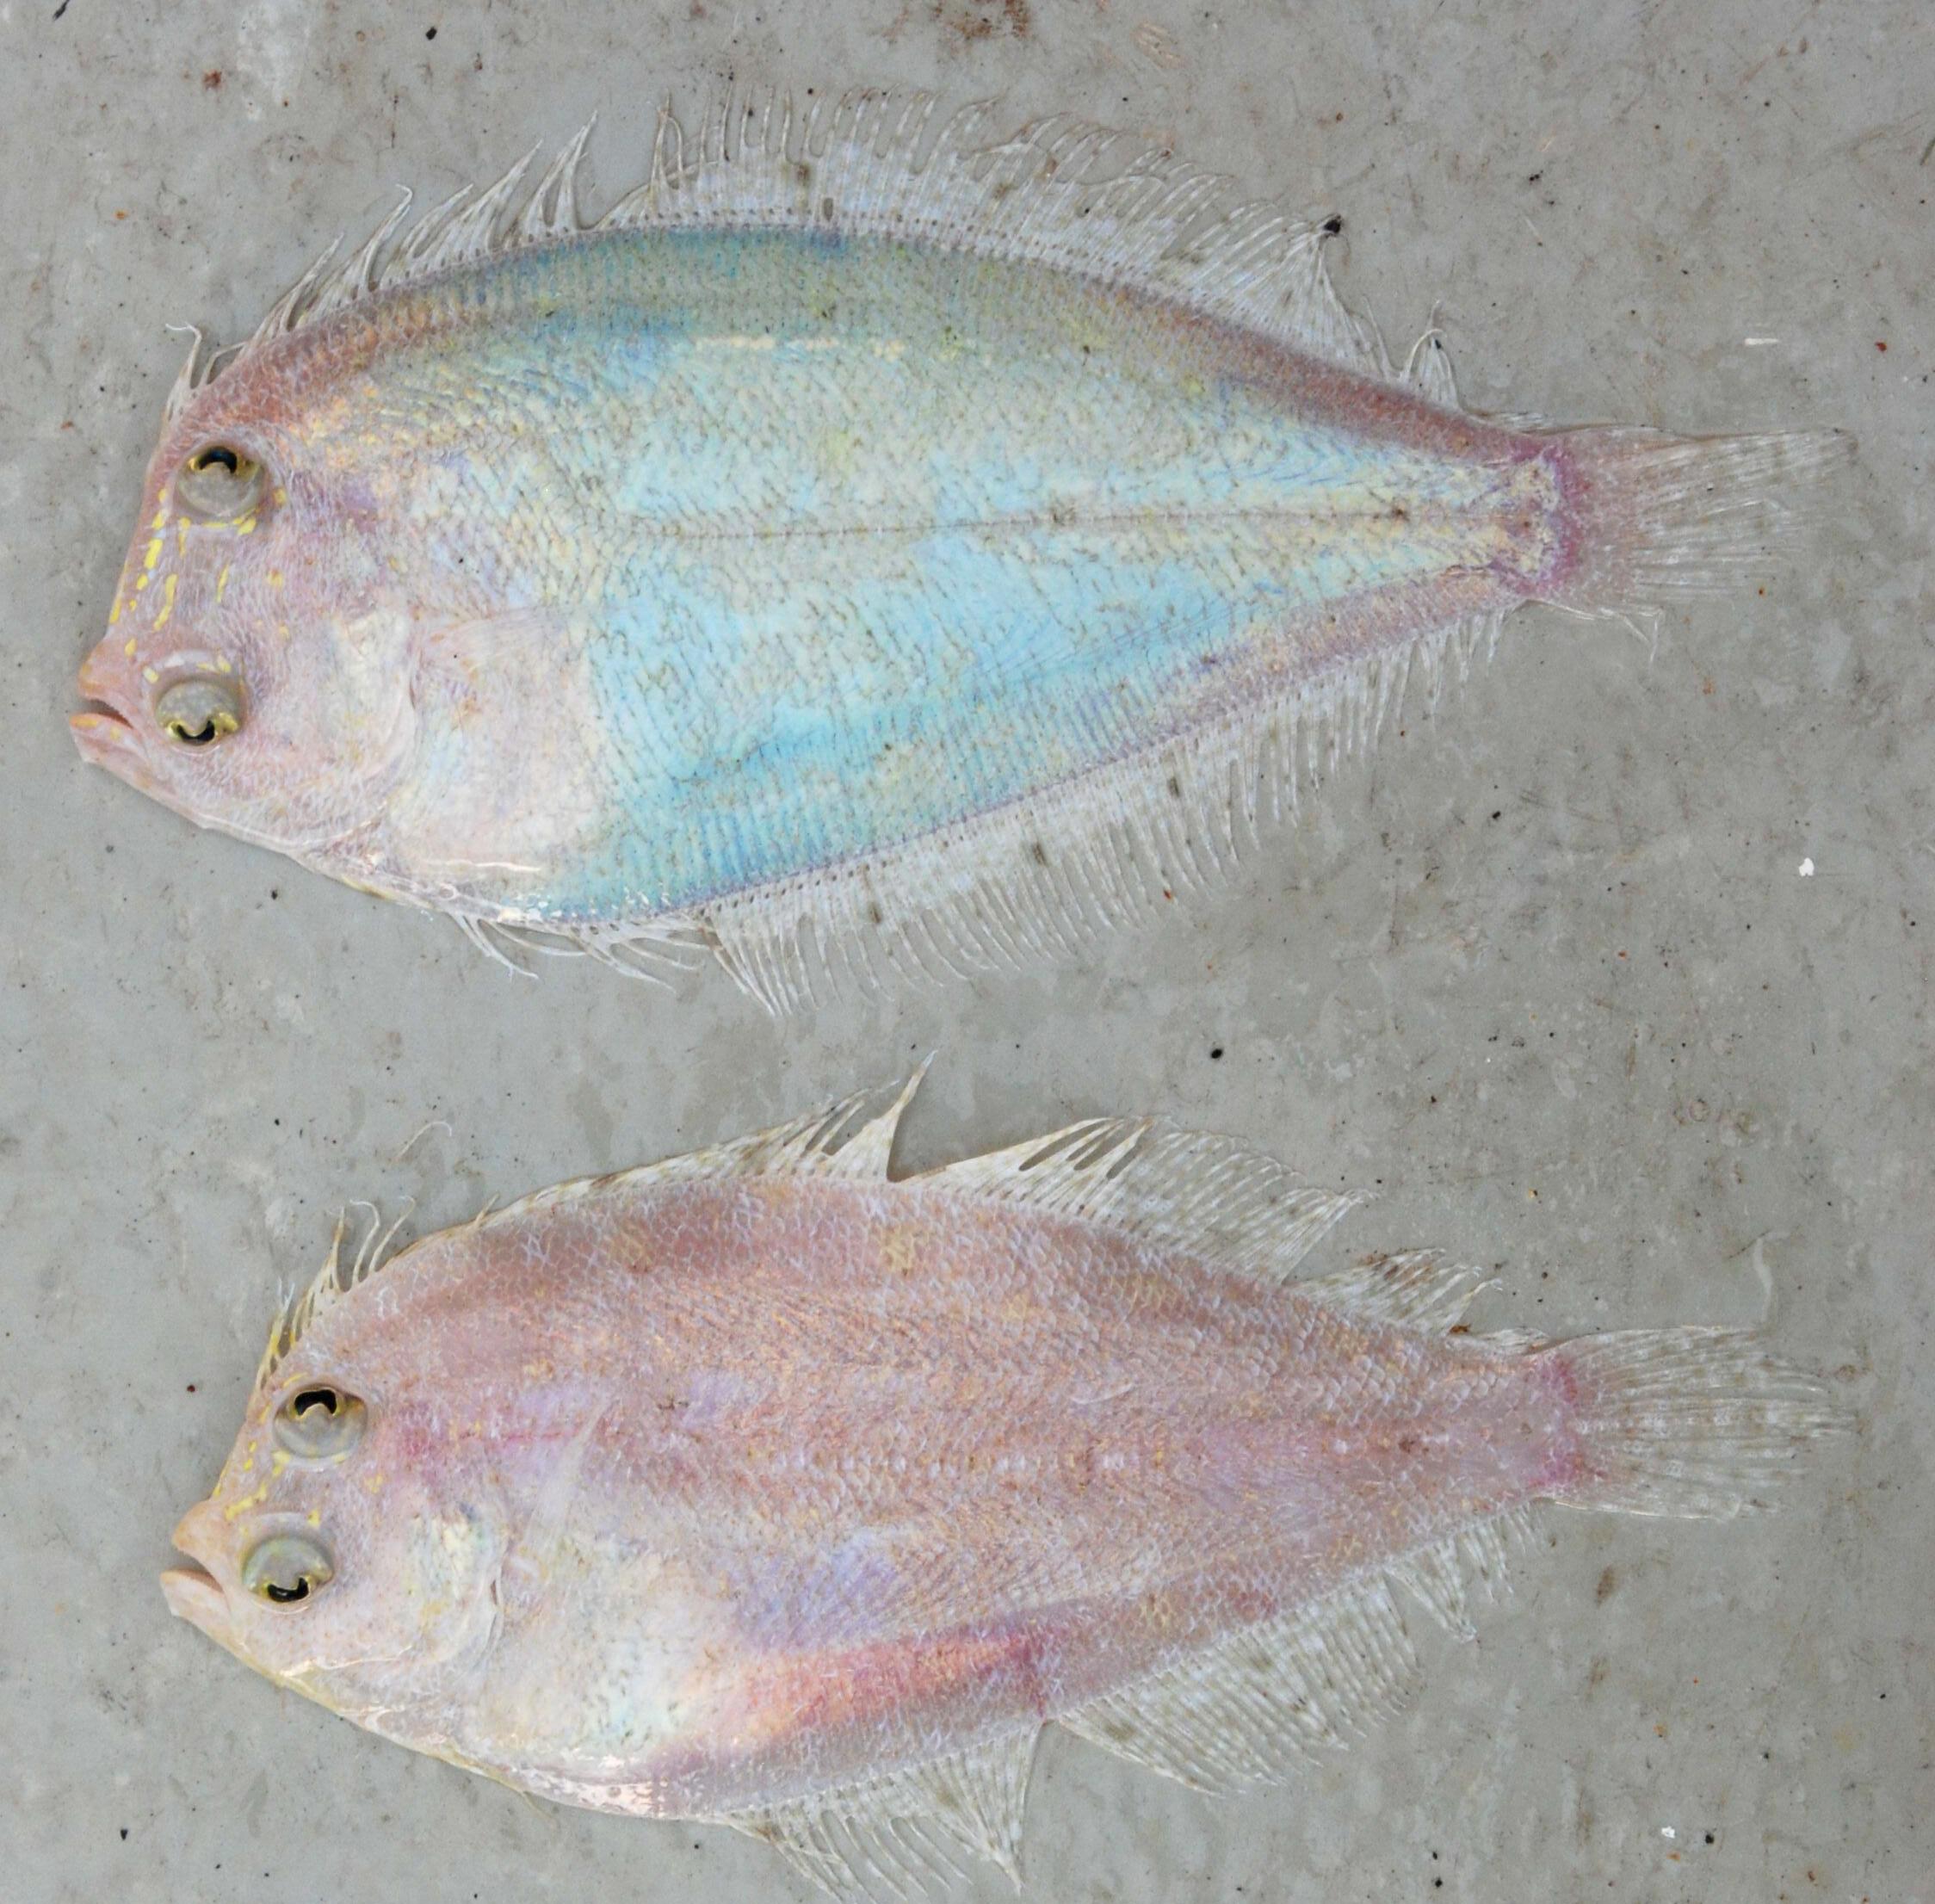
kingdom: Animalia
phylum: Chordata
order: Pleuronectiformes
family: Bothidae
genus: Tosarhombus
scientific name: Tosarhombus nielseni
